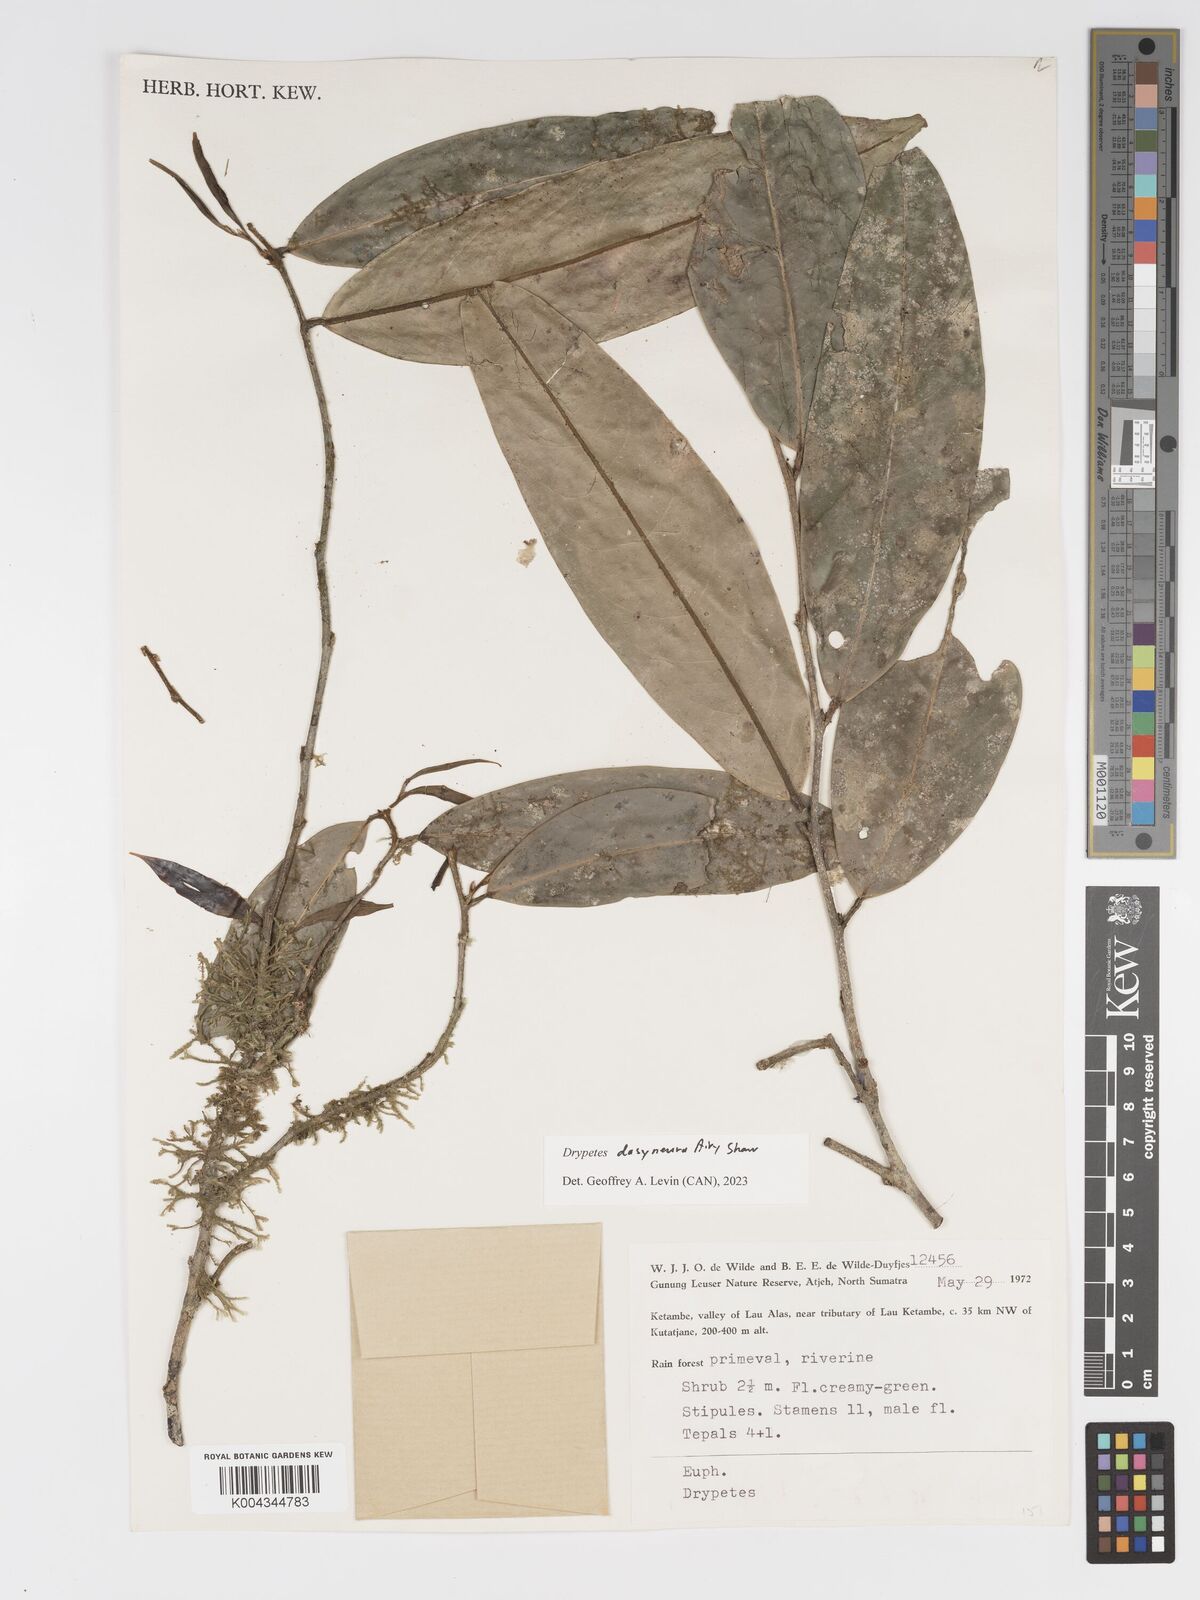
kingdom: Plantae
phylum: Tracheophyta
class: Magnoliopsida
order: Malpighiales
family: Putranjivaceae
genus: Drypetes
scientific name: Drypetes dasyneura
